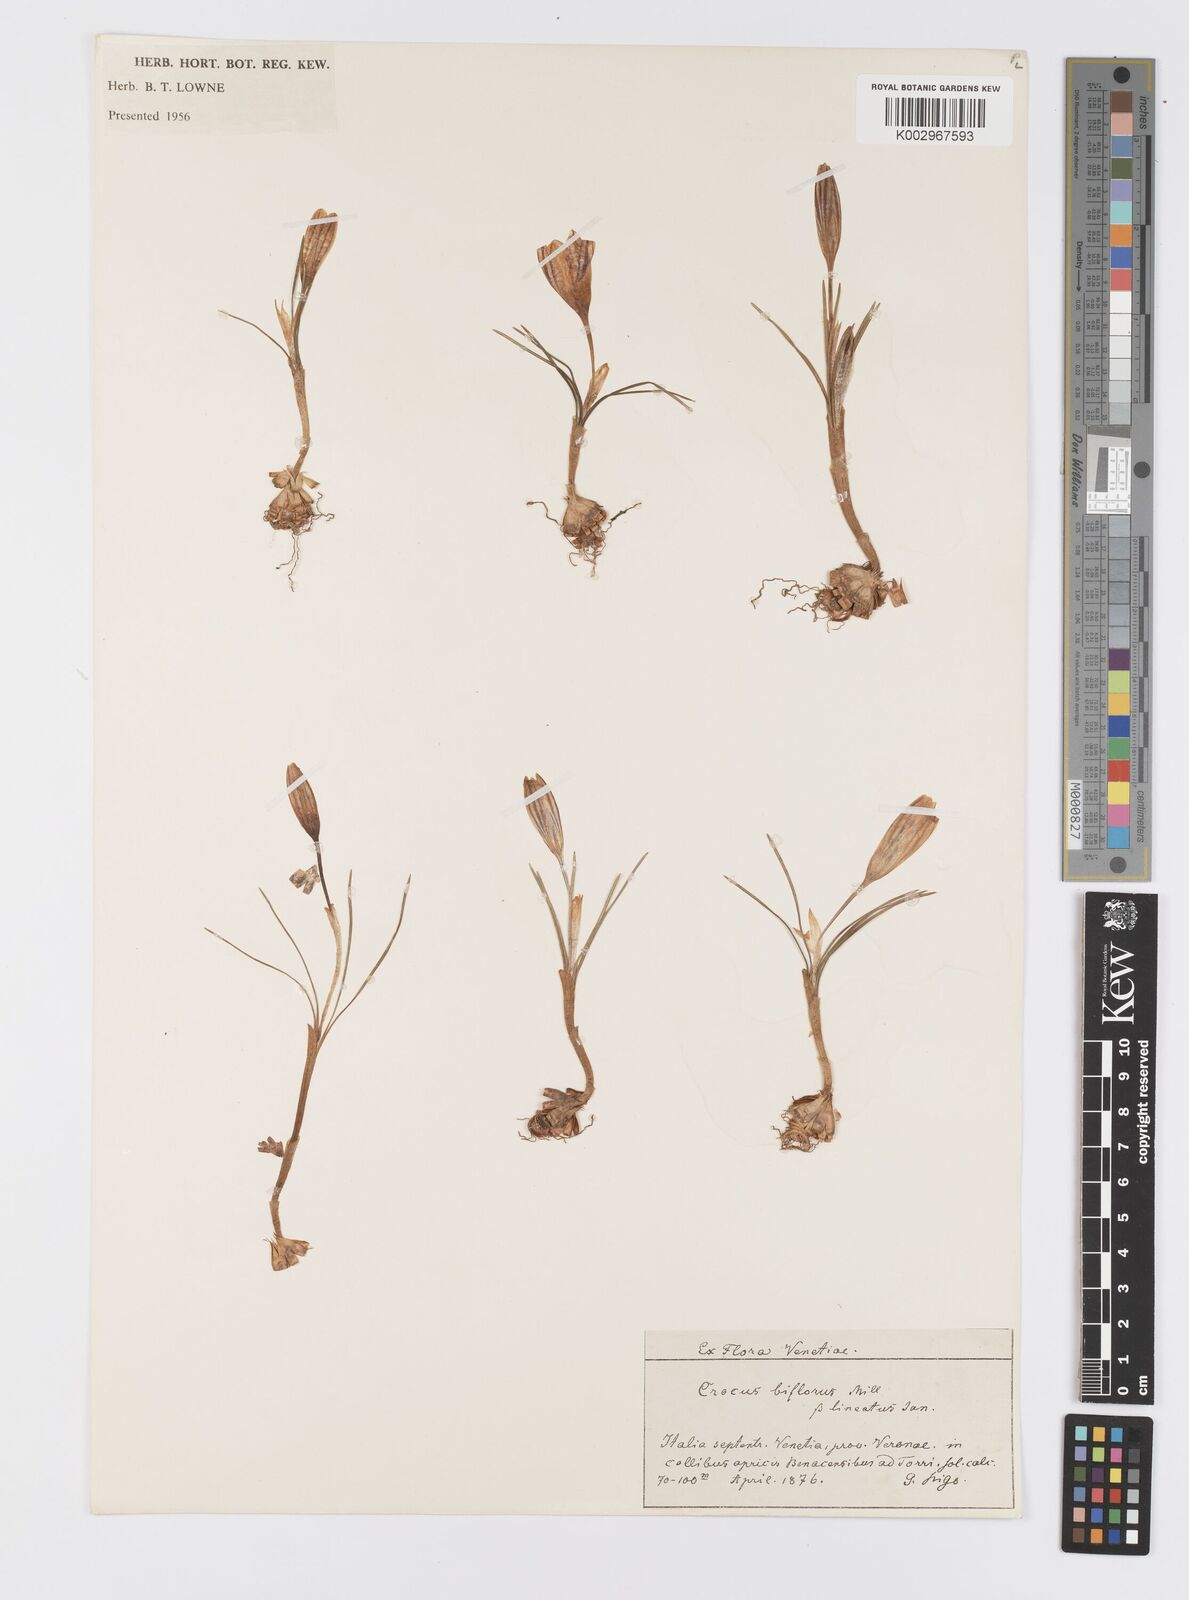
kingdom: Plantae
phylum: Tracheophyta
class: Liliopsida
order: Asparagales
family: Iridaceae
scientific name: Iridaceae
